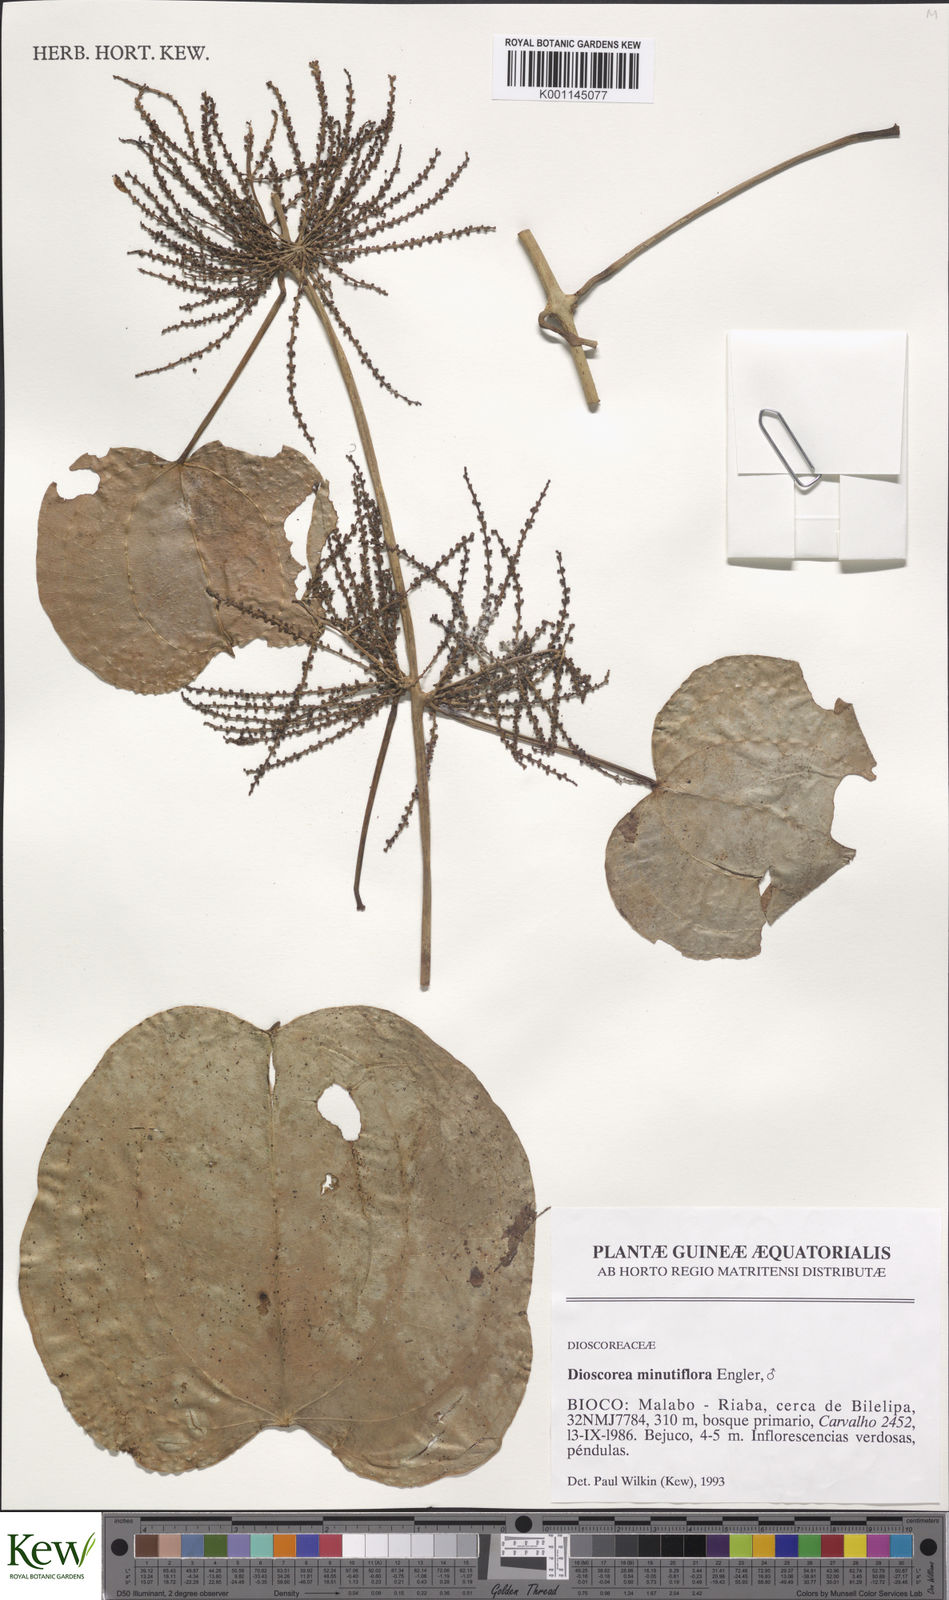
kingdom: Plantae
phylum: Tracheophyta
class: Liliopsida
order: Dioscoreales
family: Dioscoreaceae
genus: Dioscorea
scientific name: Dioscorea minutiflora
